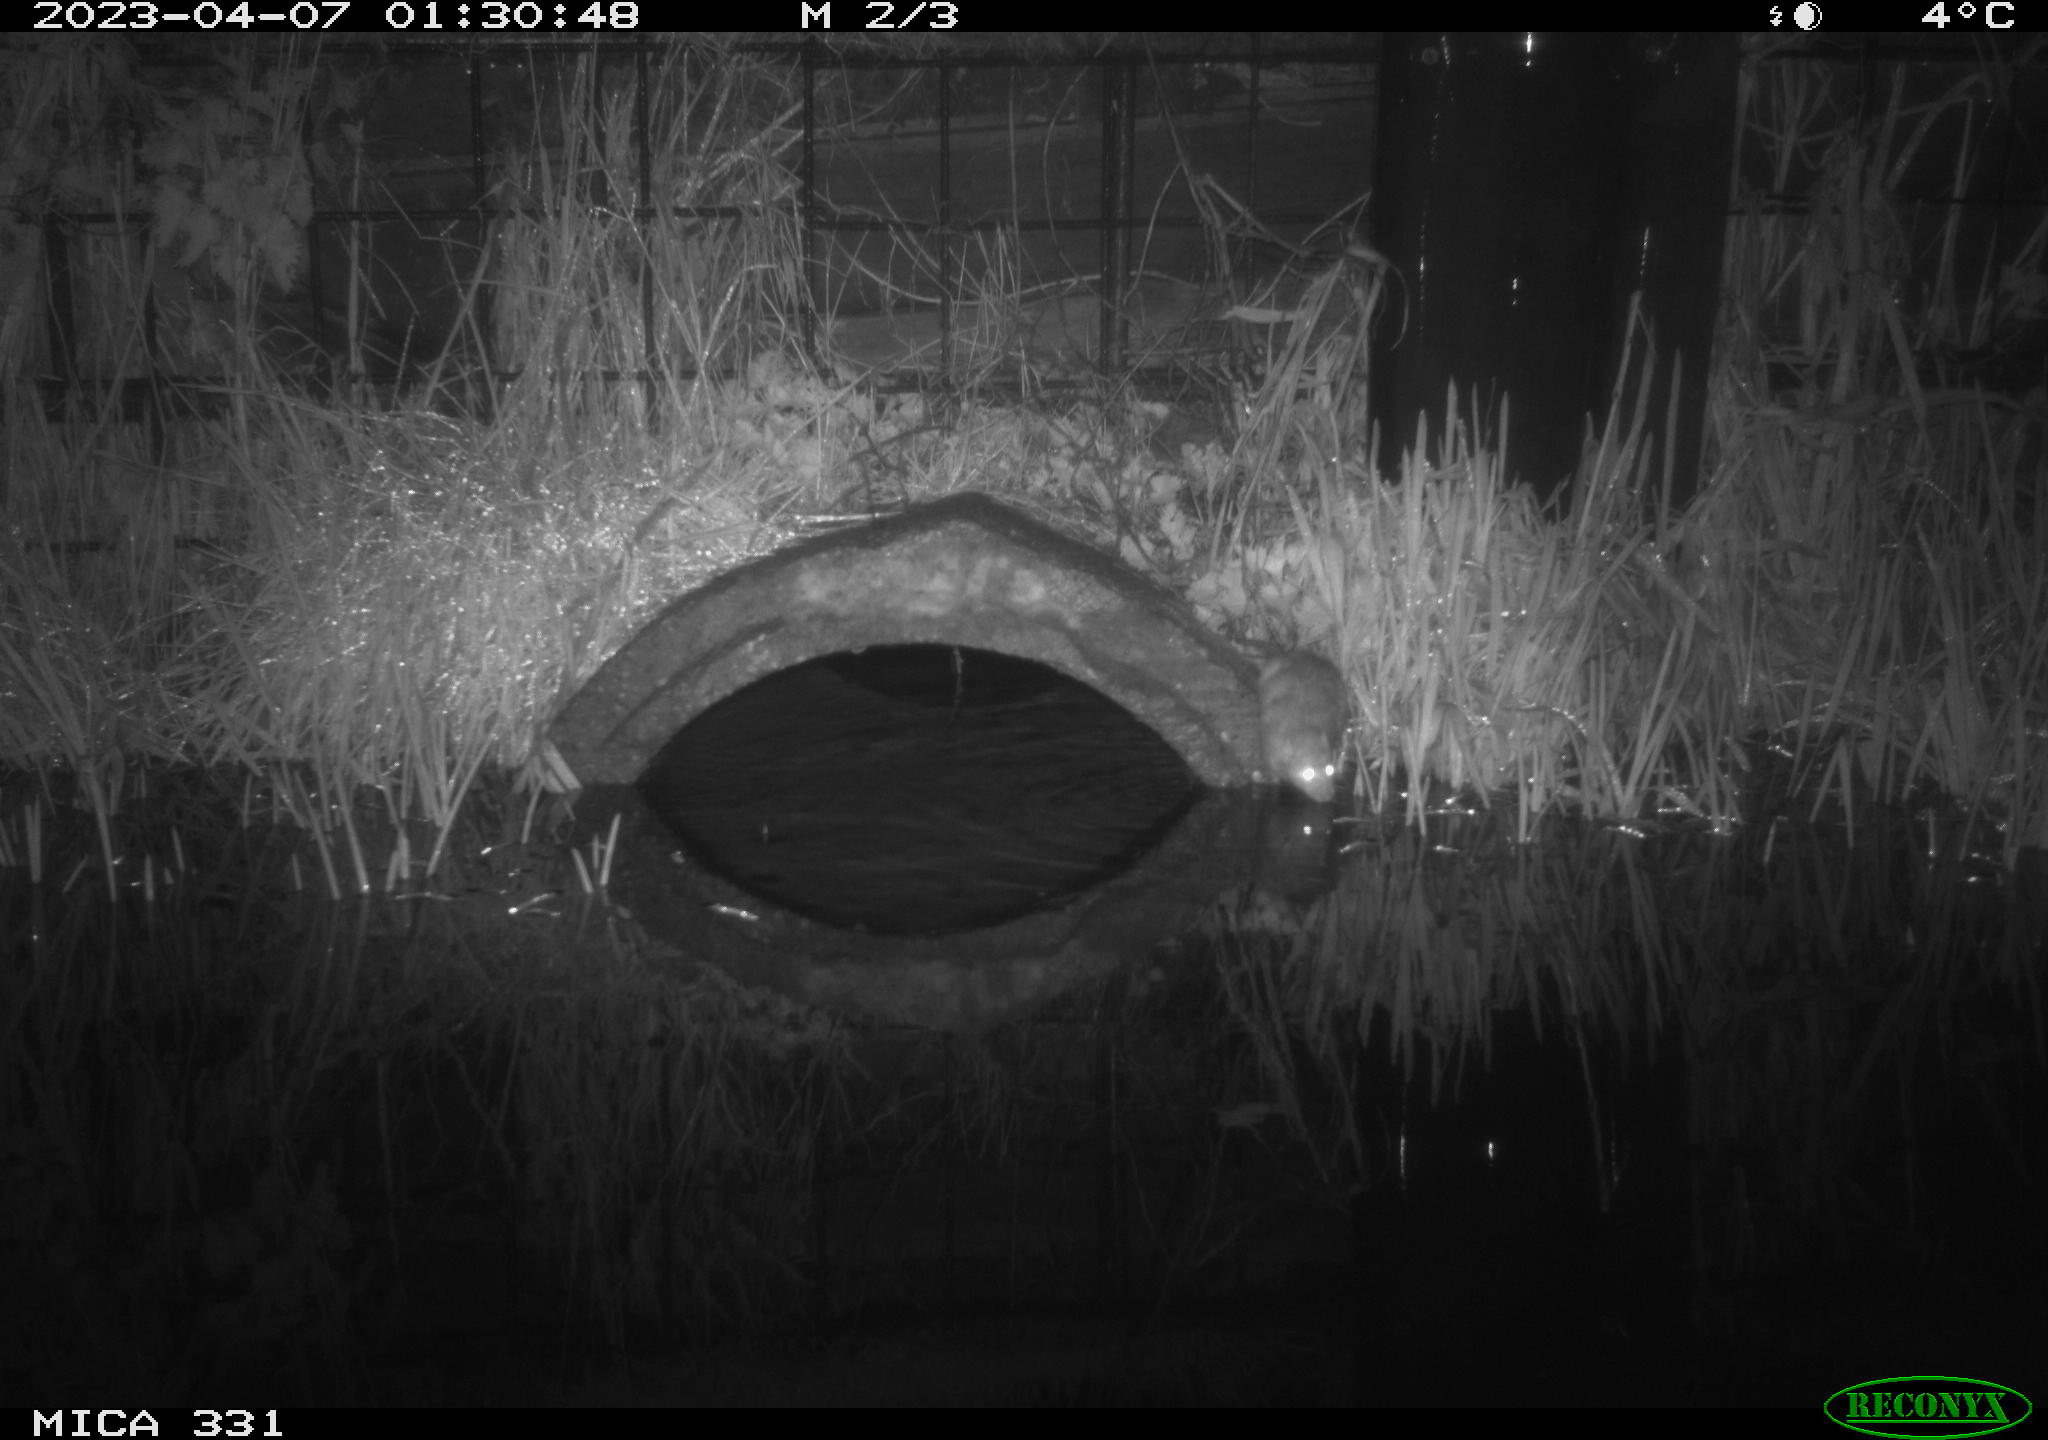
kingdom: Animalia
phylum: Chordata
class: Mammalia
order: Rodentia
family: Muridae
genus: Rattus
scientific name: Rattus norvegicus
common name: Brown rat
